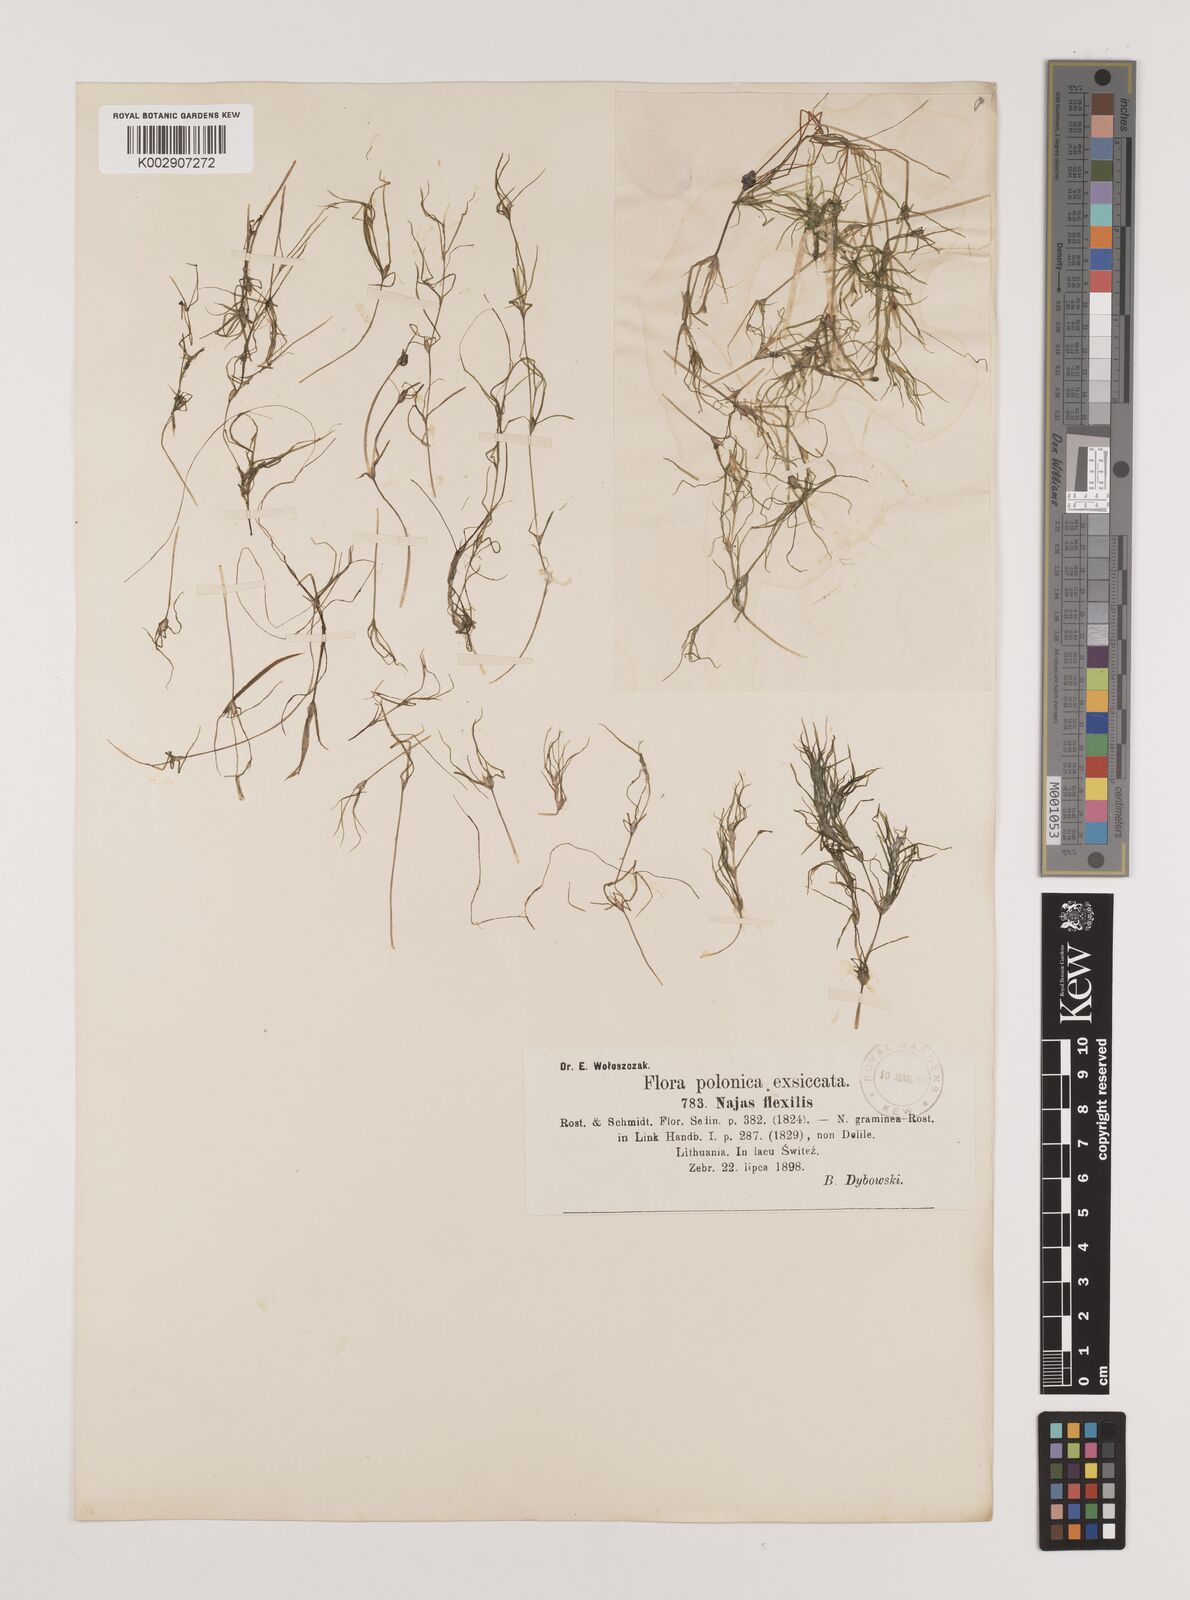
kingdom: Plantae
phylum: Tracheophyta
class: Liliopsida
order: Alismatales
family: Hydrocharitaceae
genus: Najas
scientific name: Najas flexilis
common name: Slender naiad
